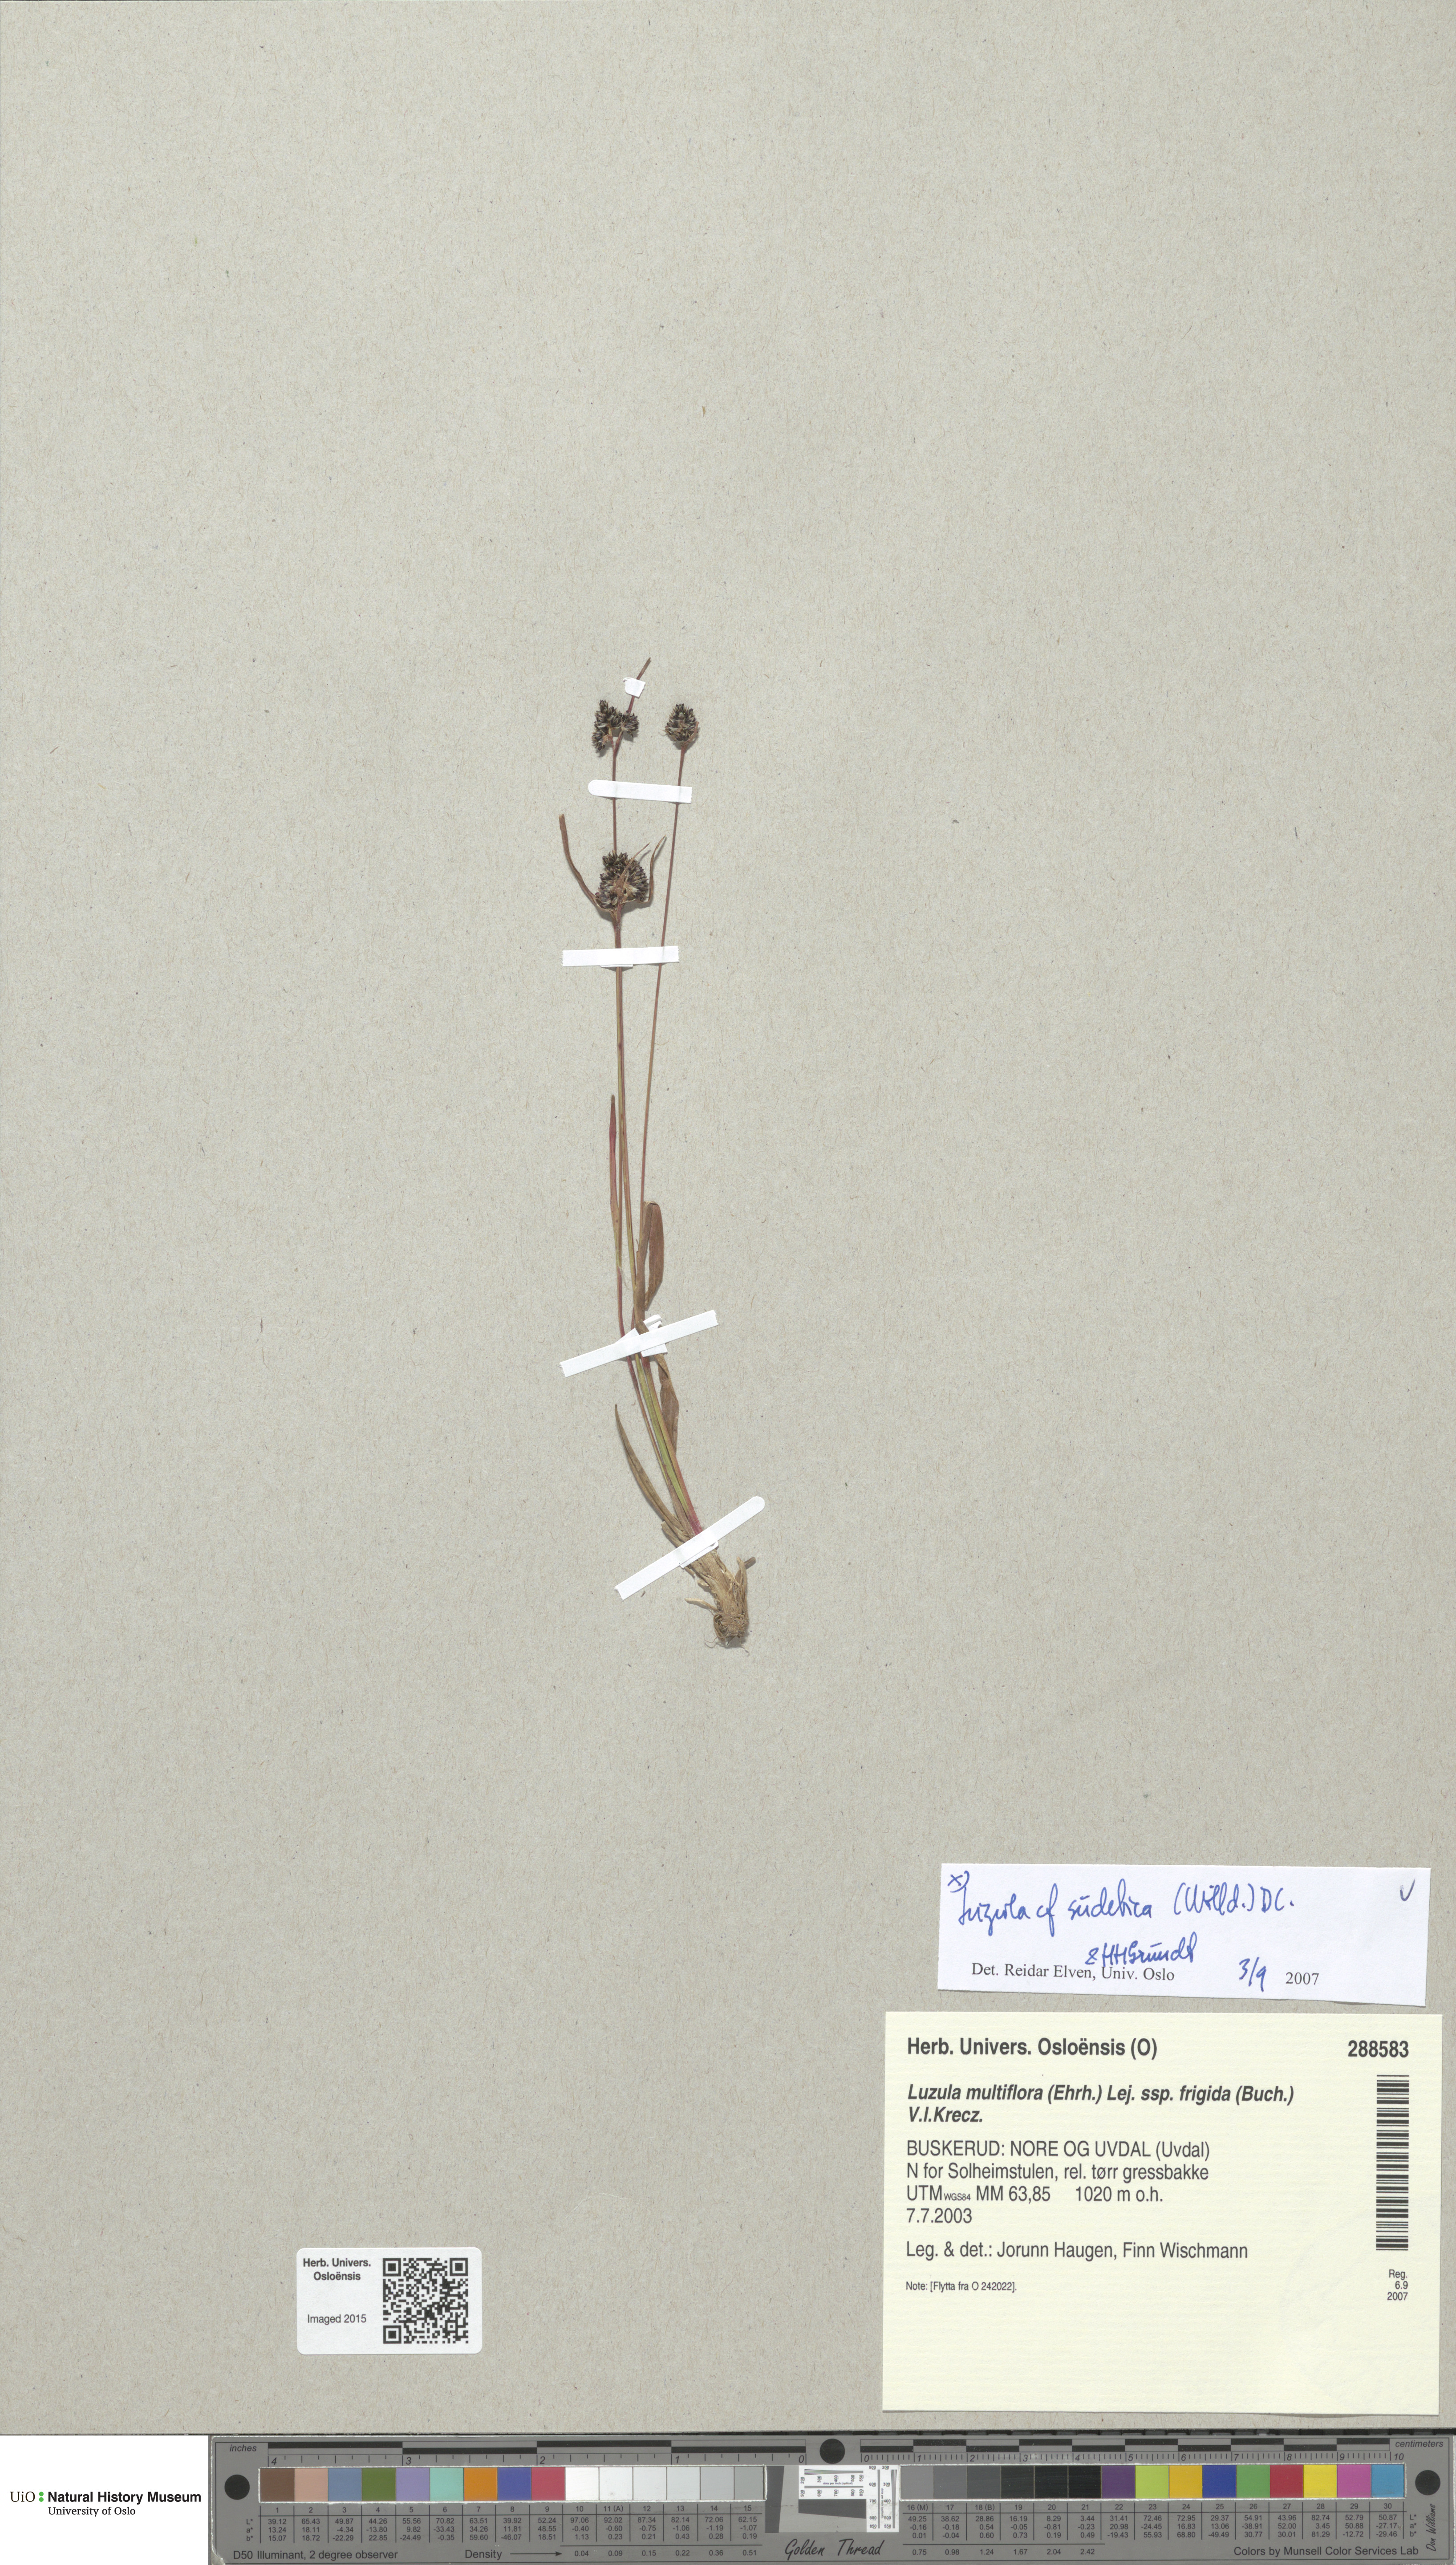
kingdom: Plantae
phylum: Tracheophyta
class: Liliopsida
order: Poales
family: Juncaceae
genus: Luzula
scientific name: Luzula sudetica
